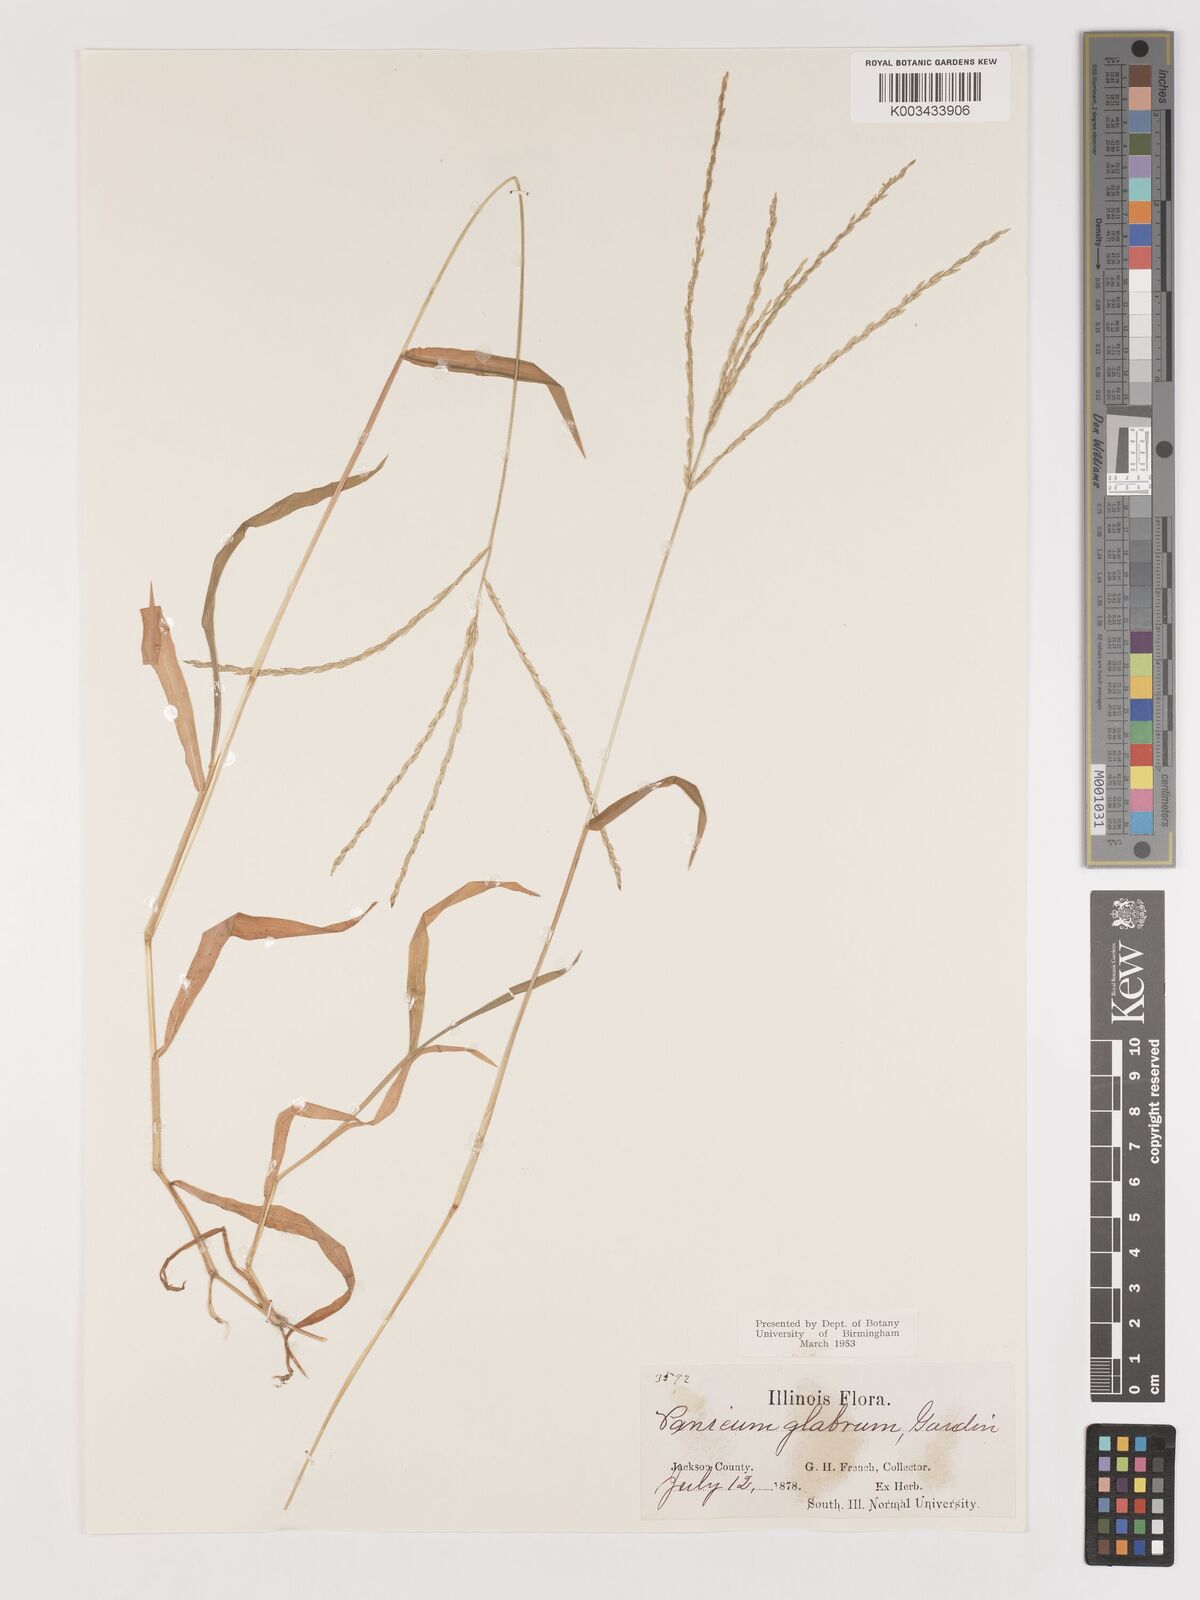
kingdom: Plantae
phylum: Tracheophyta
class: Liliopsida
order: Poales
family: Poaceae
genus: Digitaria
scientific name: Digitaria ischaemum
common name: Smooth crabgrass
